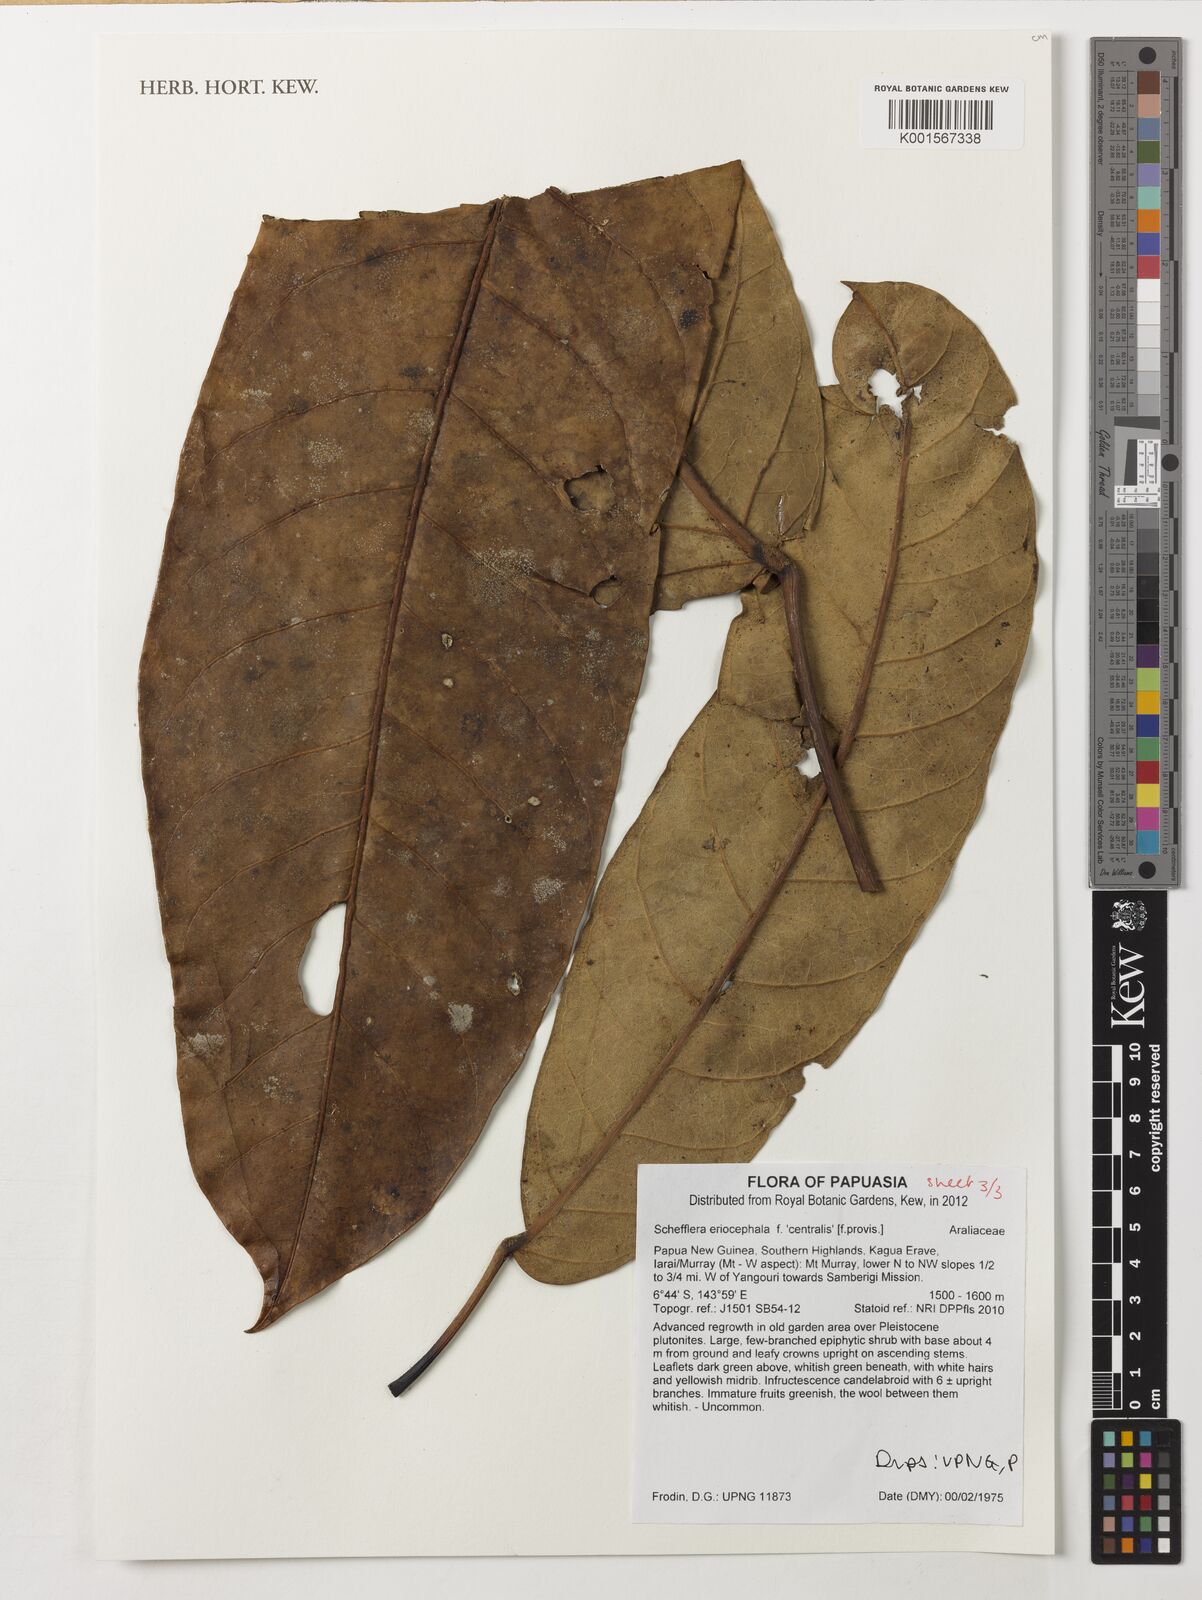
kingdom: Plantae
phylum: Tracheophyta
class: Magnoliopsida
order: Apiales
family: Araliaceae
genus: Heptapleurum
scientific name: Heptapleurum eriocephalum
